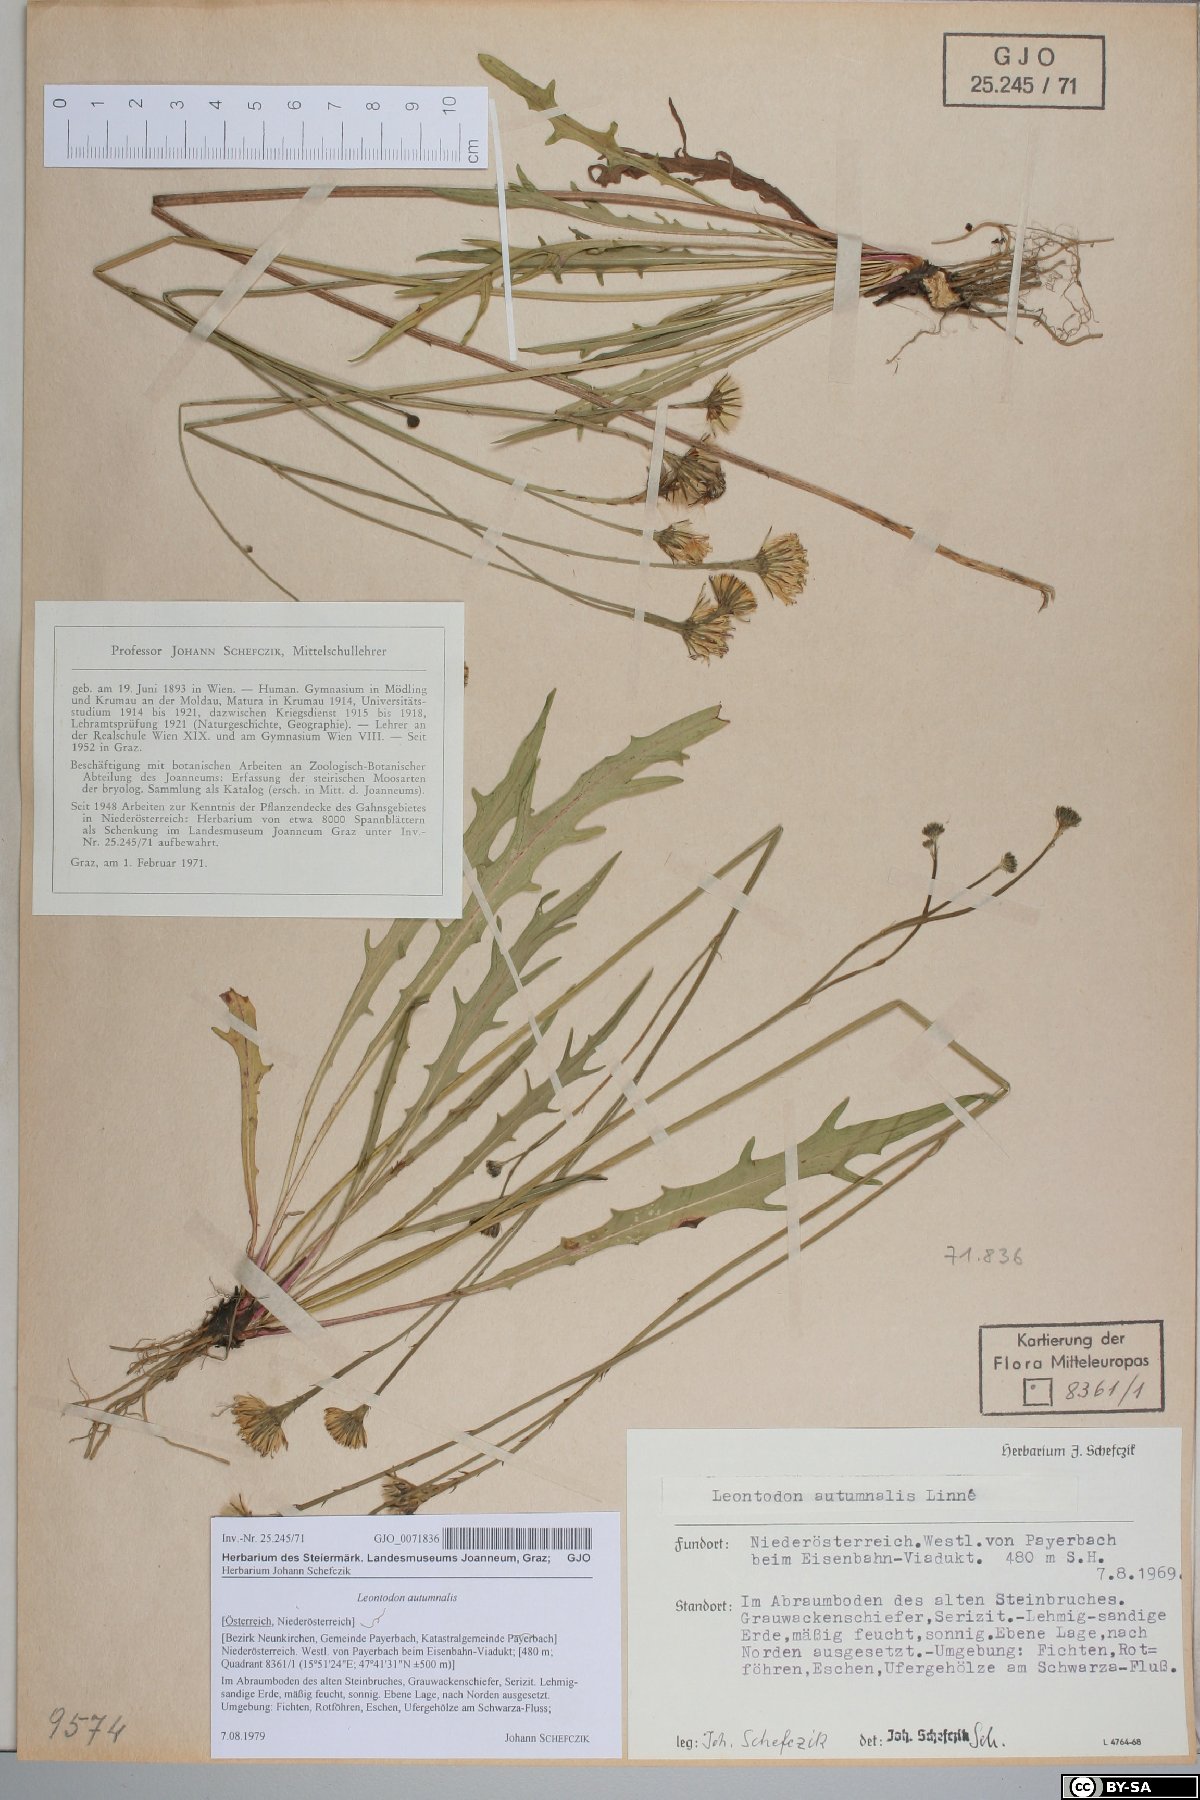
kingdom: Plantae
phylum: Tracheophyta
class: Magnoliopsida
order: Asterales
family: Asteraceae
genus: Scorzoneroides
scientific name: Scorzoneroides autumnalis
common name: Autumn hawkbit
